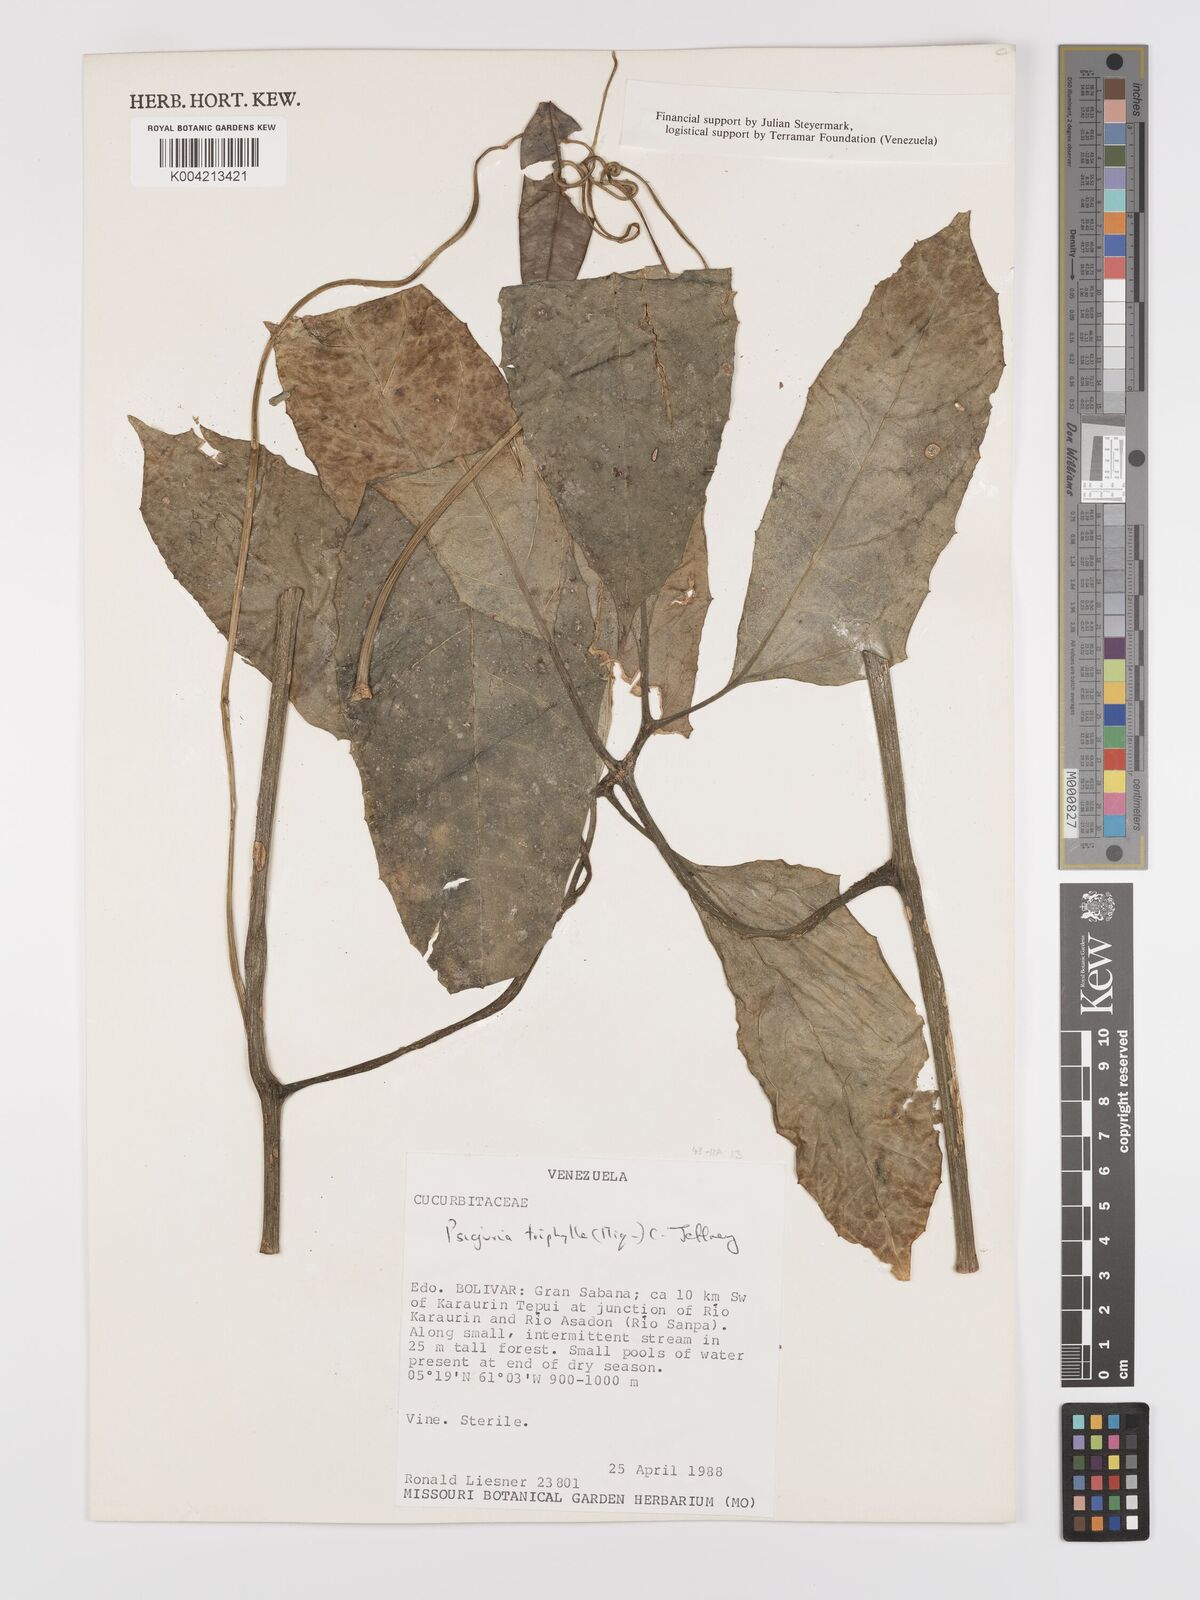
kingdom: Plantae
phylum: Tracheophyta
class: Magnoliopsida
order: Cucurbitales
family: Cucurbitaceae
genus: Psiguria
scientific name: Psiguria triphylla
